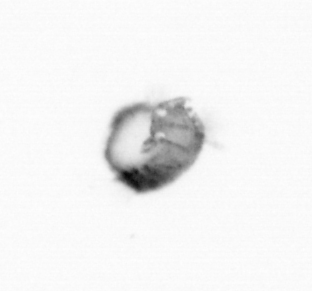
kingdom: Animalia
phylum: Annelida
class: Polychaeta
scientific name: Polychaeta
